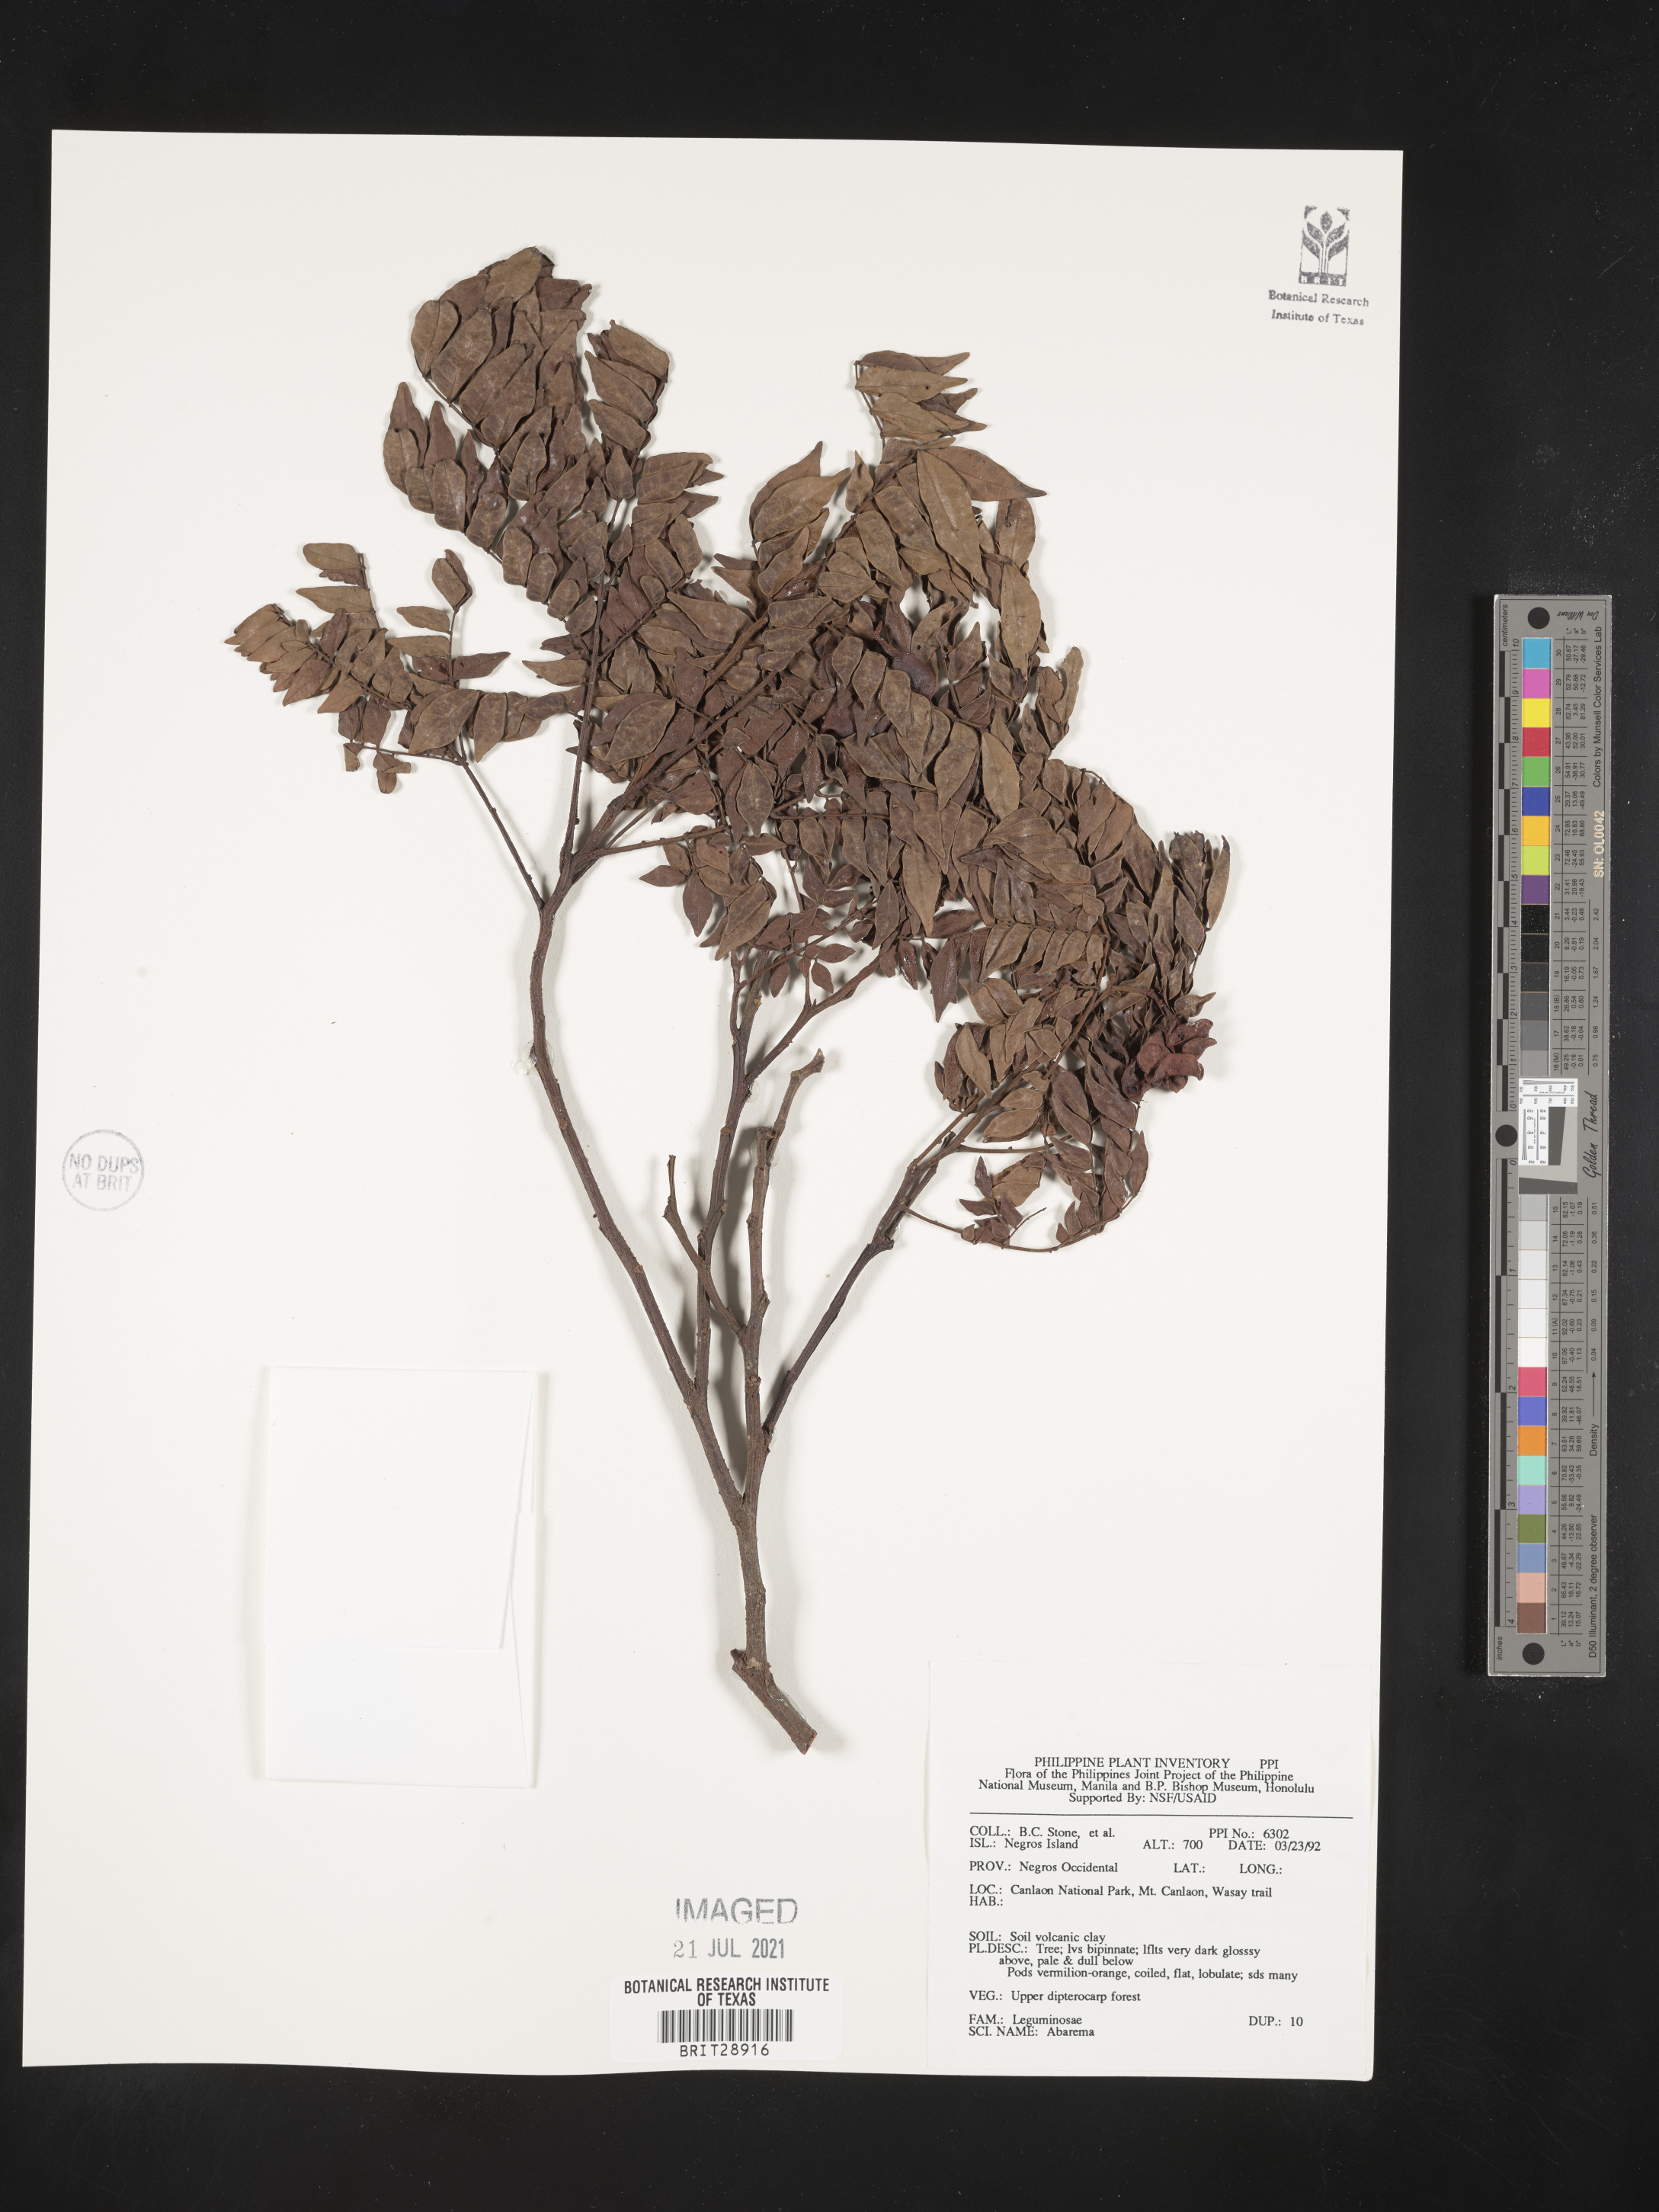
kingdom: Plantae
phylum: Tracheophyta
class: Magnoliopsida
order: Fabales
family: Fabaceae
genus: Abarema
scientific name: Abarema
